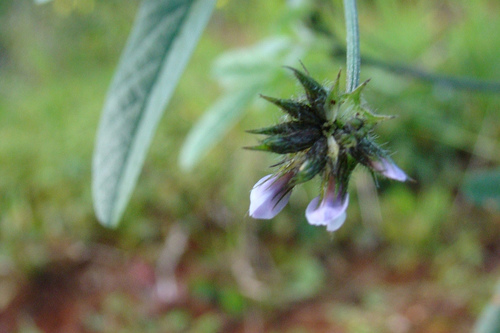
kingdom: Plantae
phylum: Tracheophyta
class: Magnoliopsida
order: Fabales
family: Fabaceae
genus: Bituminaria
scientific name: Bituminaria bituminosa
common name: Arabian pea
